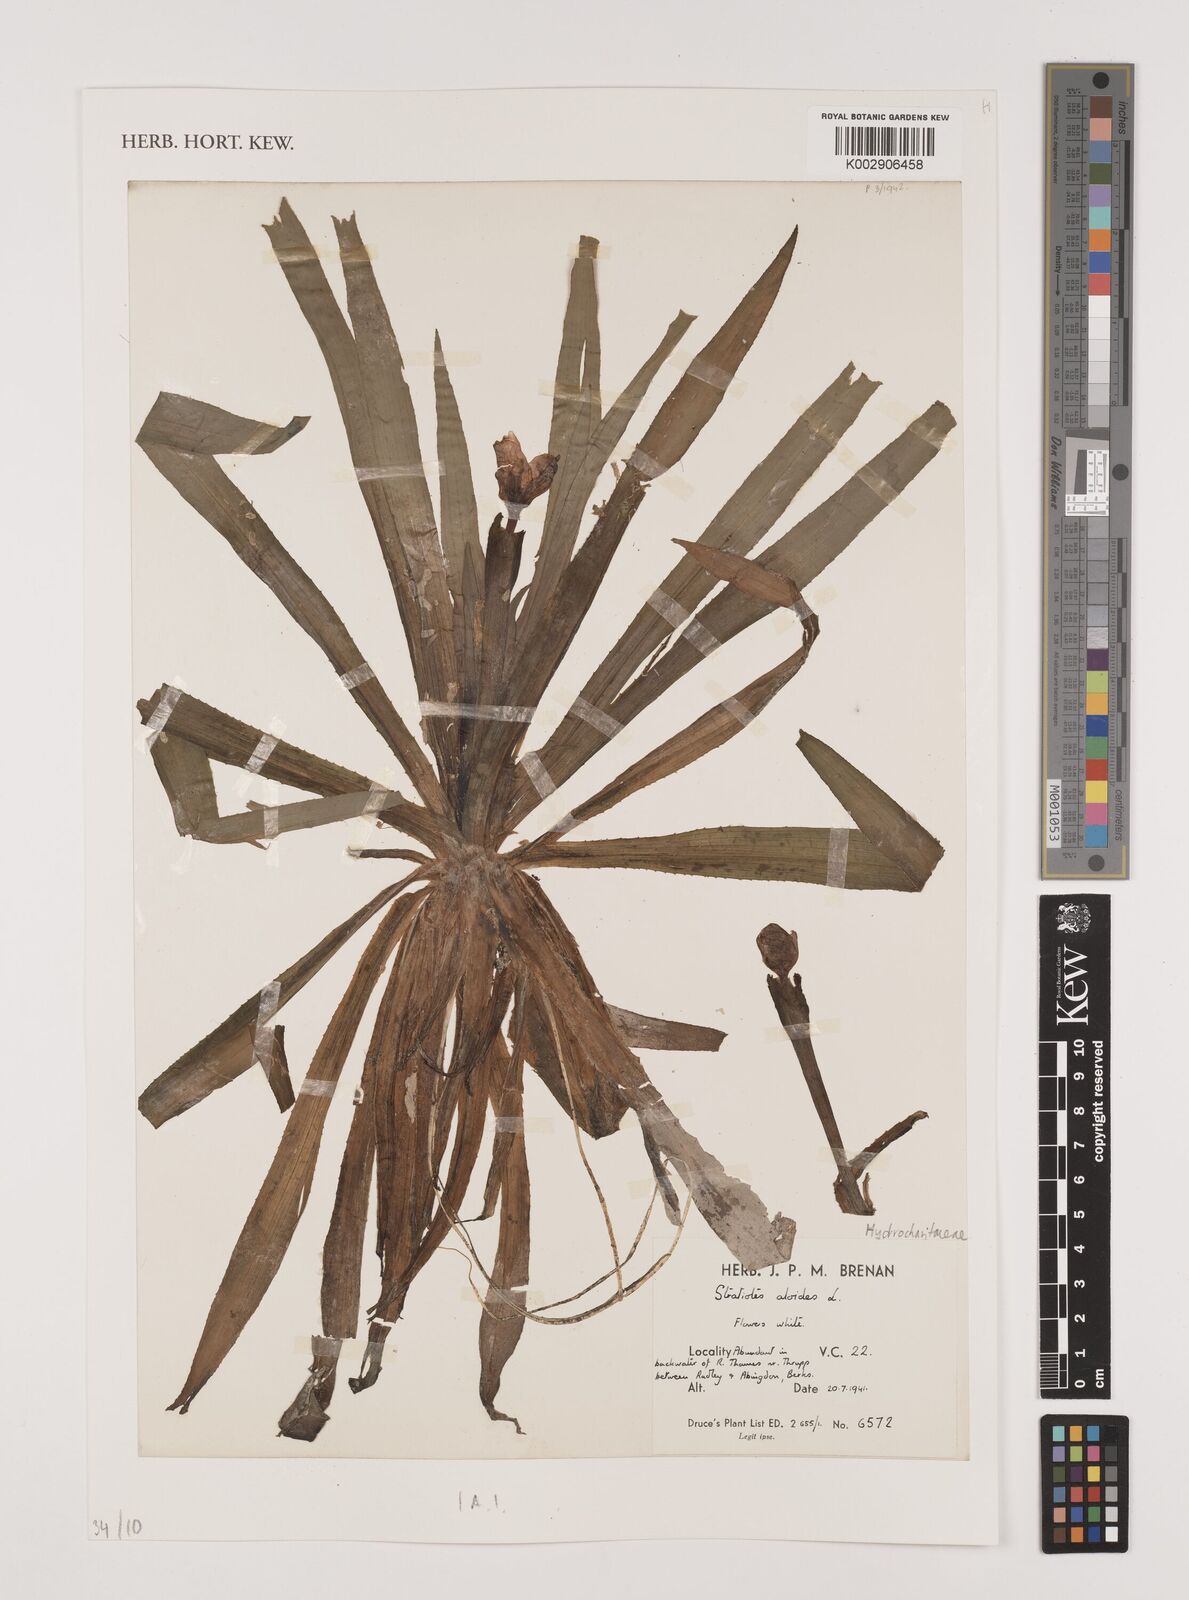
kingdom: Plantae
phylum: Tracheophyta
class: Liliopsida
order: Alismatales
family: Hydrocharitaceae
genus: Stratiotes
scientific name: Stratiotes aloides
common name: Water-soldier
